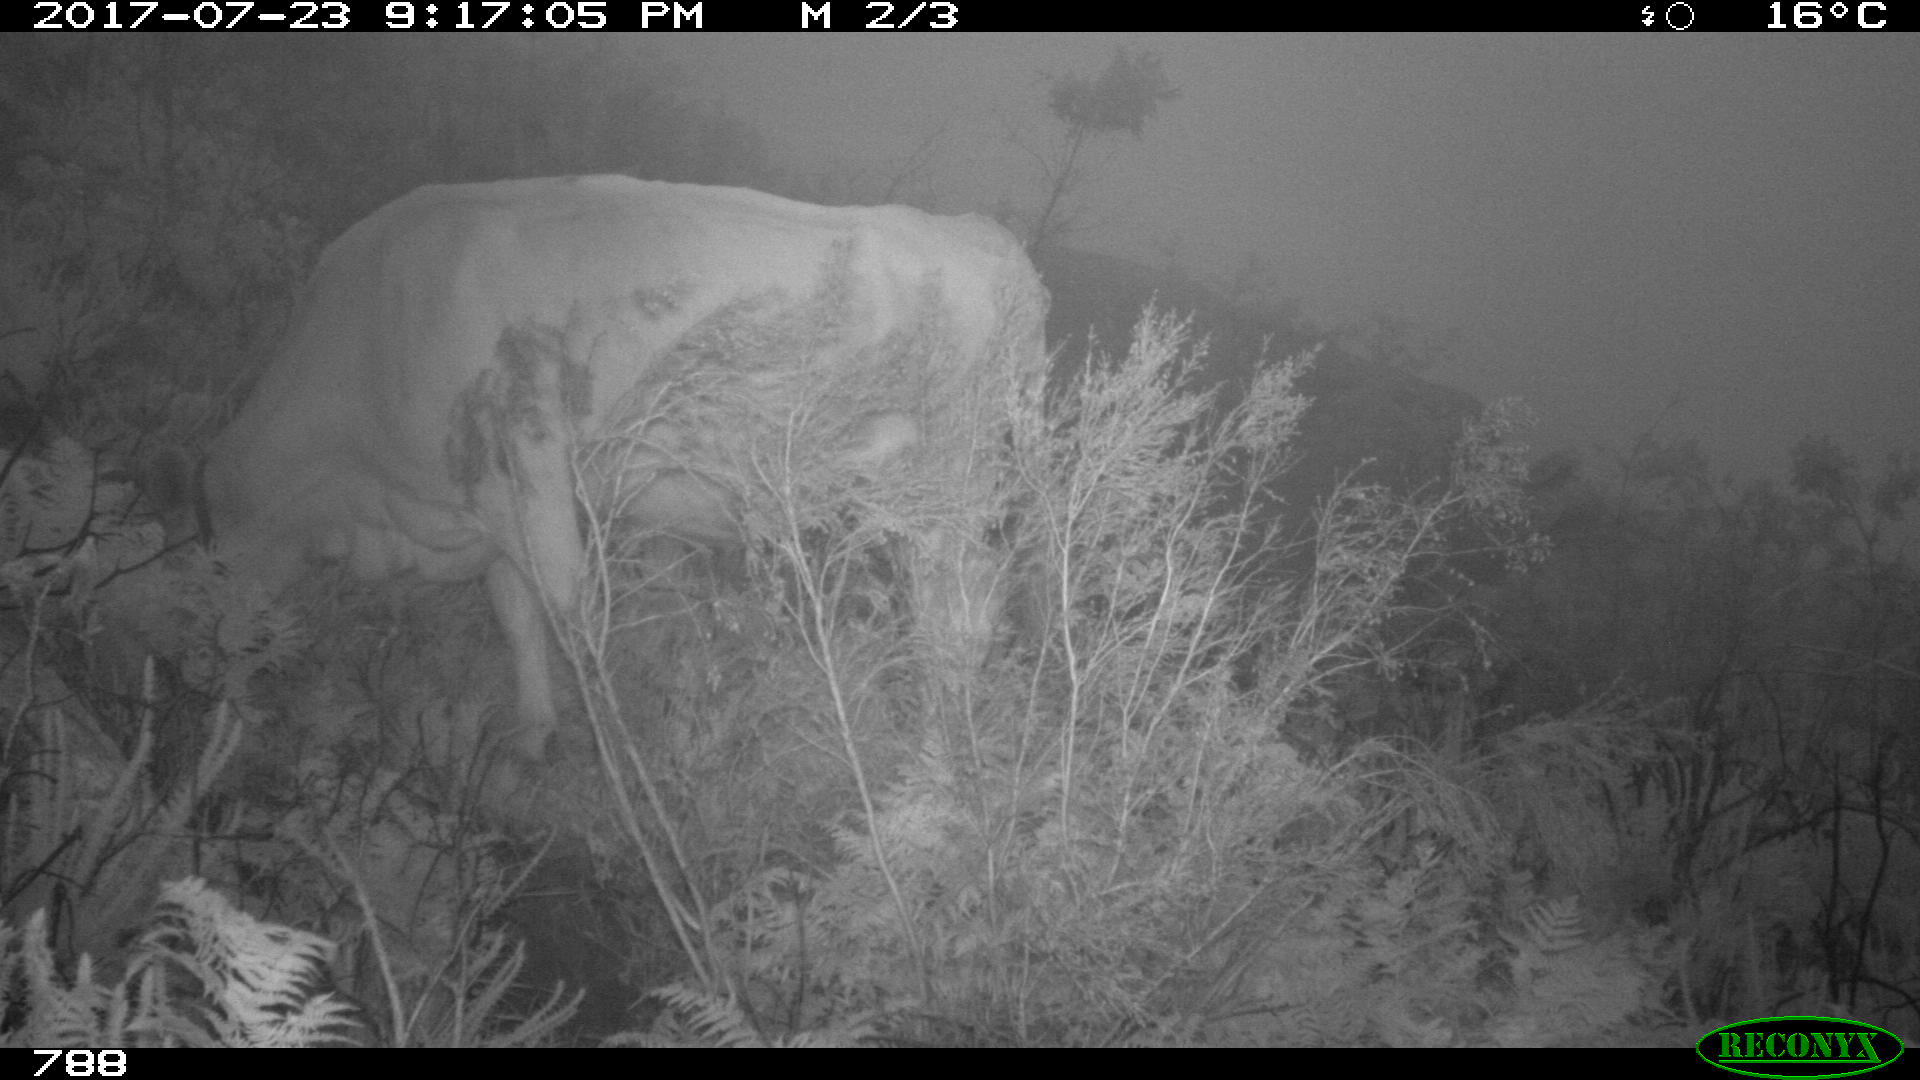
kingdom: Animalia
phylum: Chordata
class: Mammalia
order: Artiodactyla
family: Bovidae
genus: Bos
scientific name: Bos taurus
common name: Domesticated cattle
